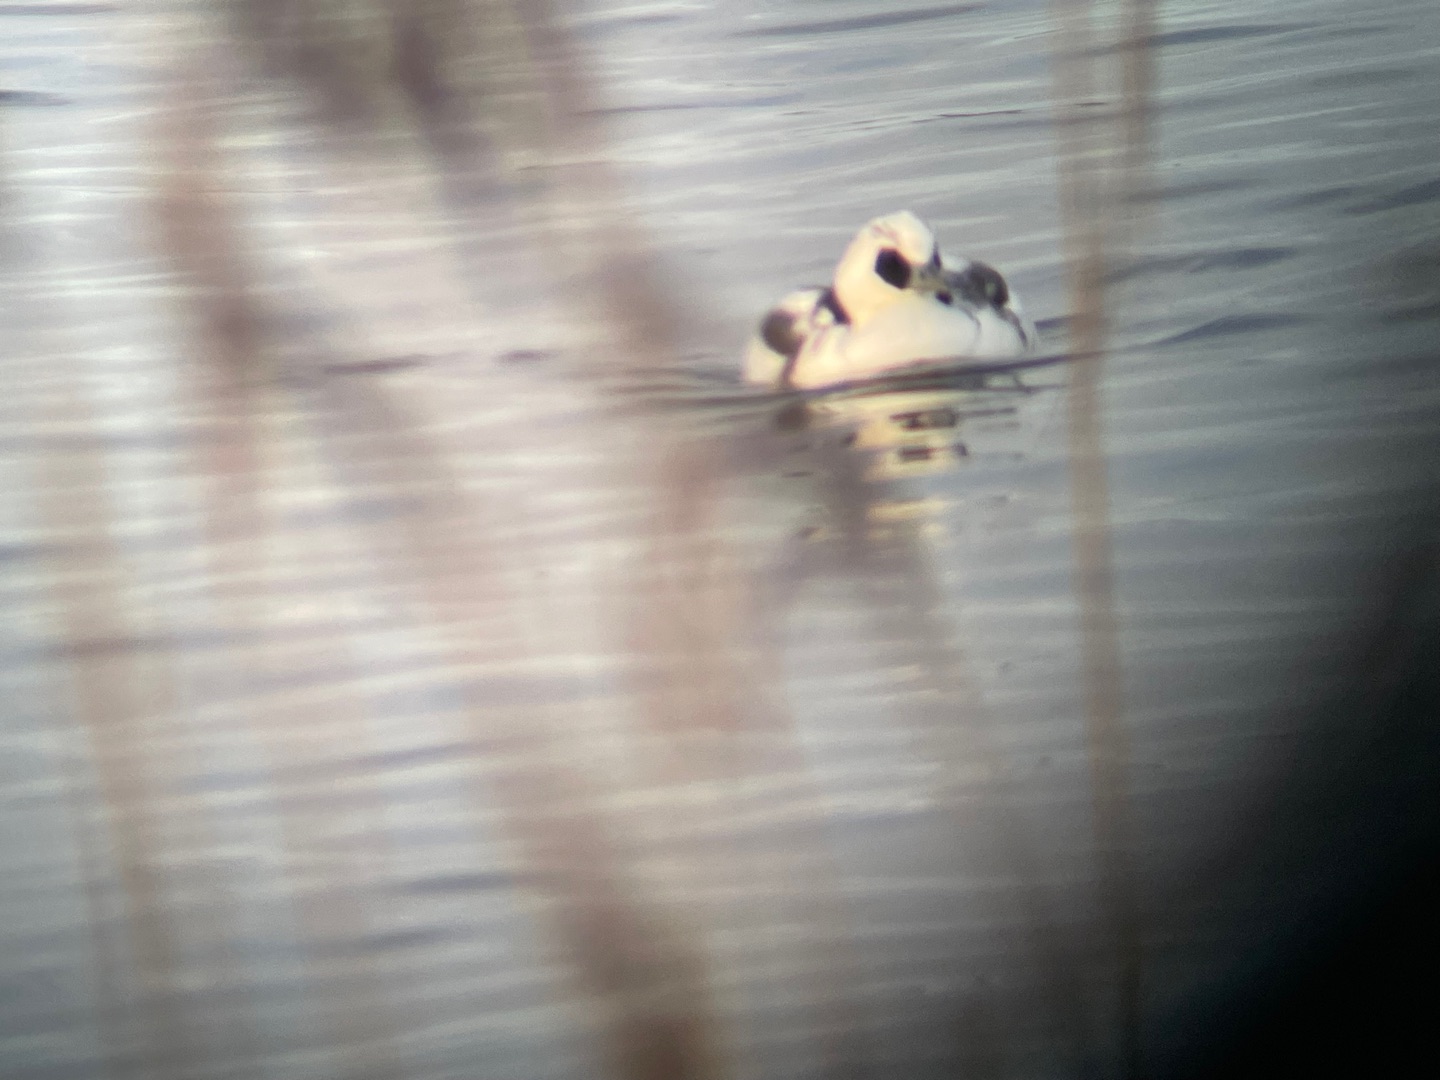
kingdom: Animalia
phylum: Chordata
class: Aves
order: Anseriformes
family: Anatidae
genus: Mergellus
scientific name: Mergellus albellus
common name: Lille skallesluger
